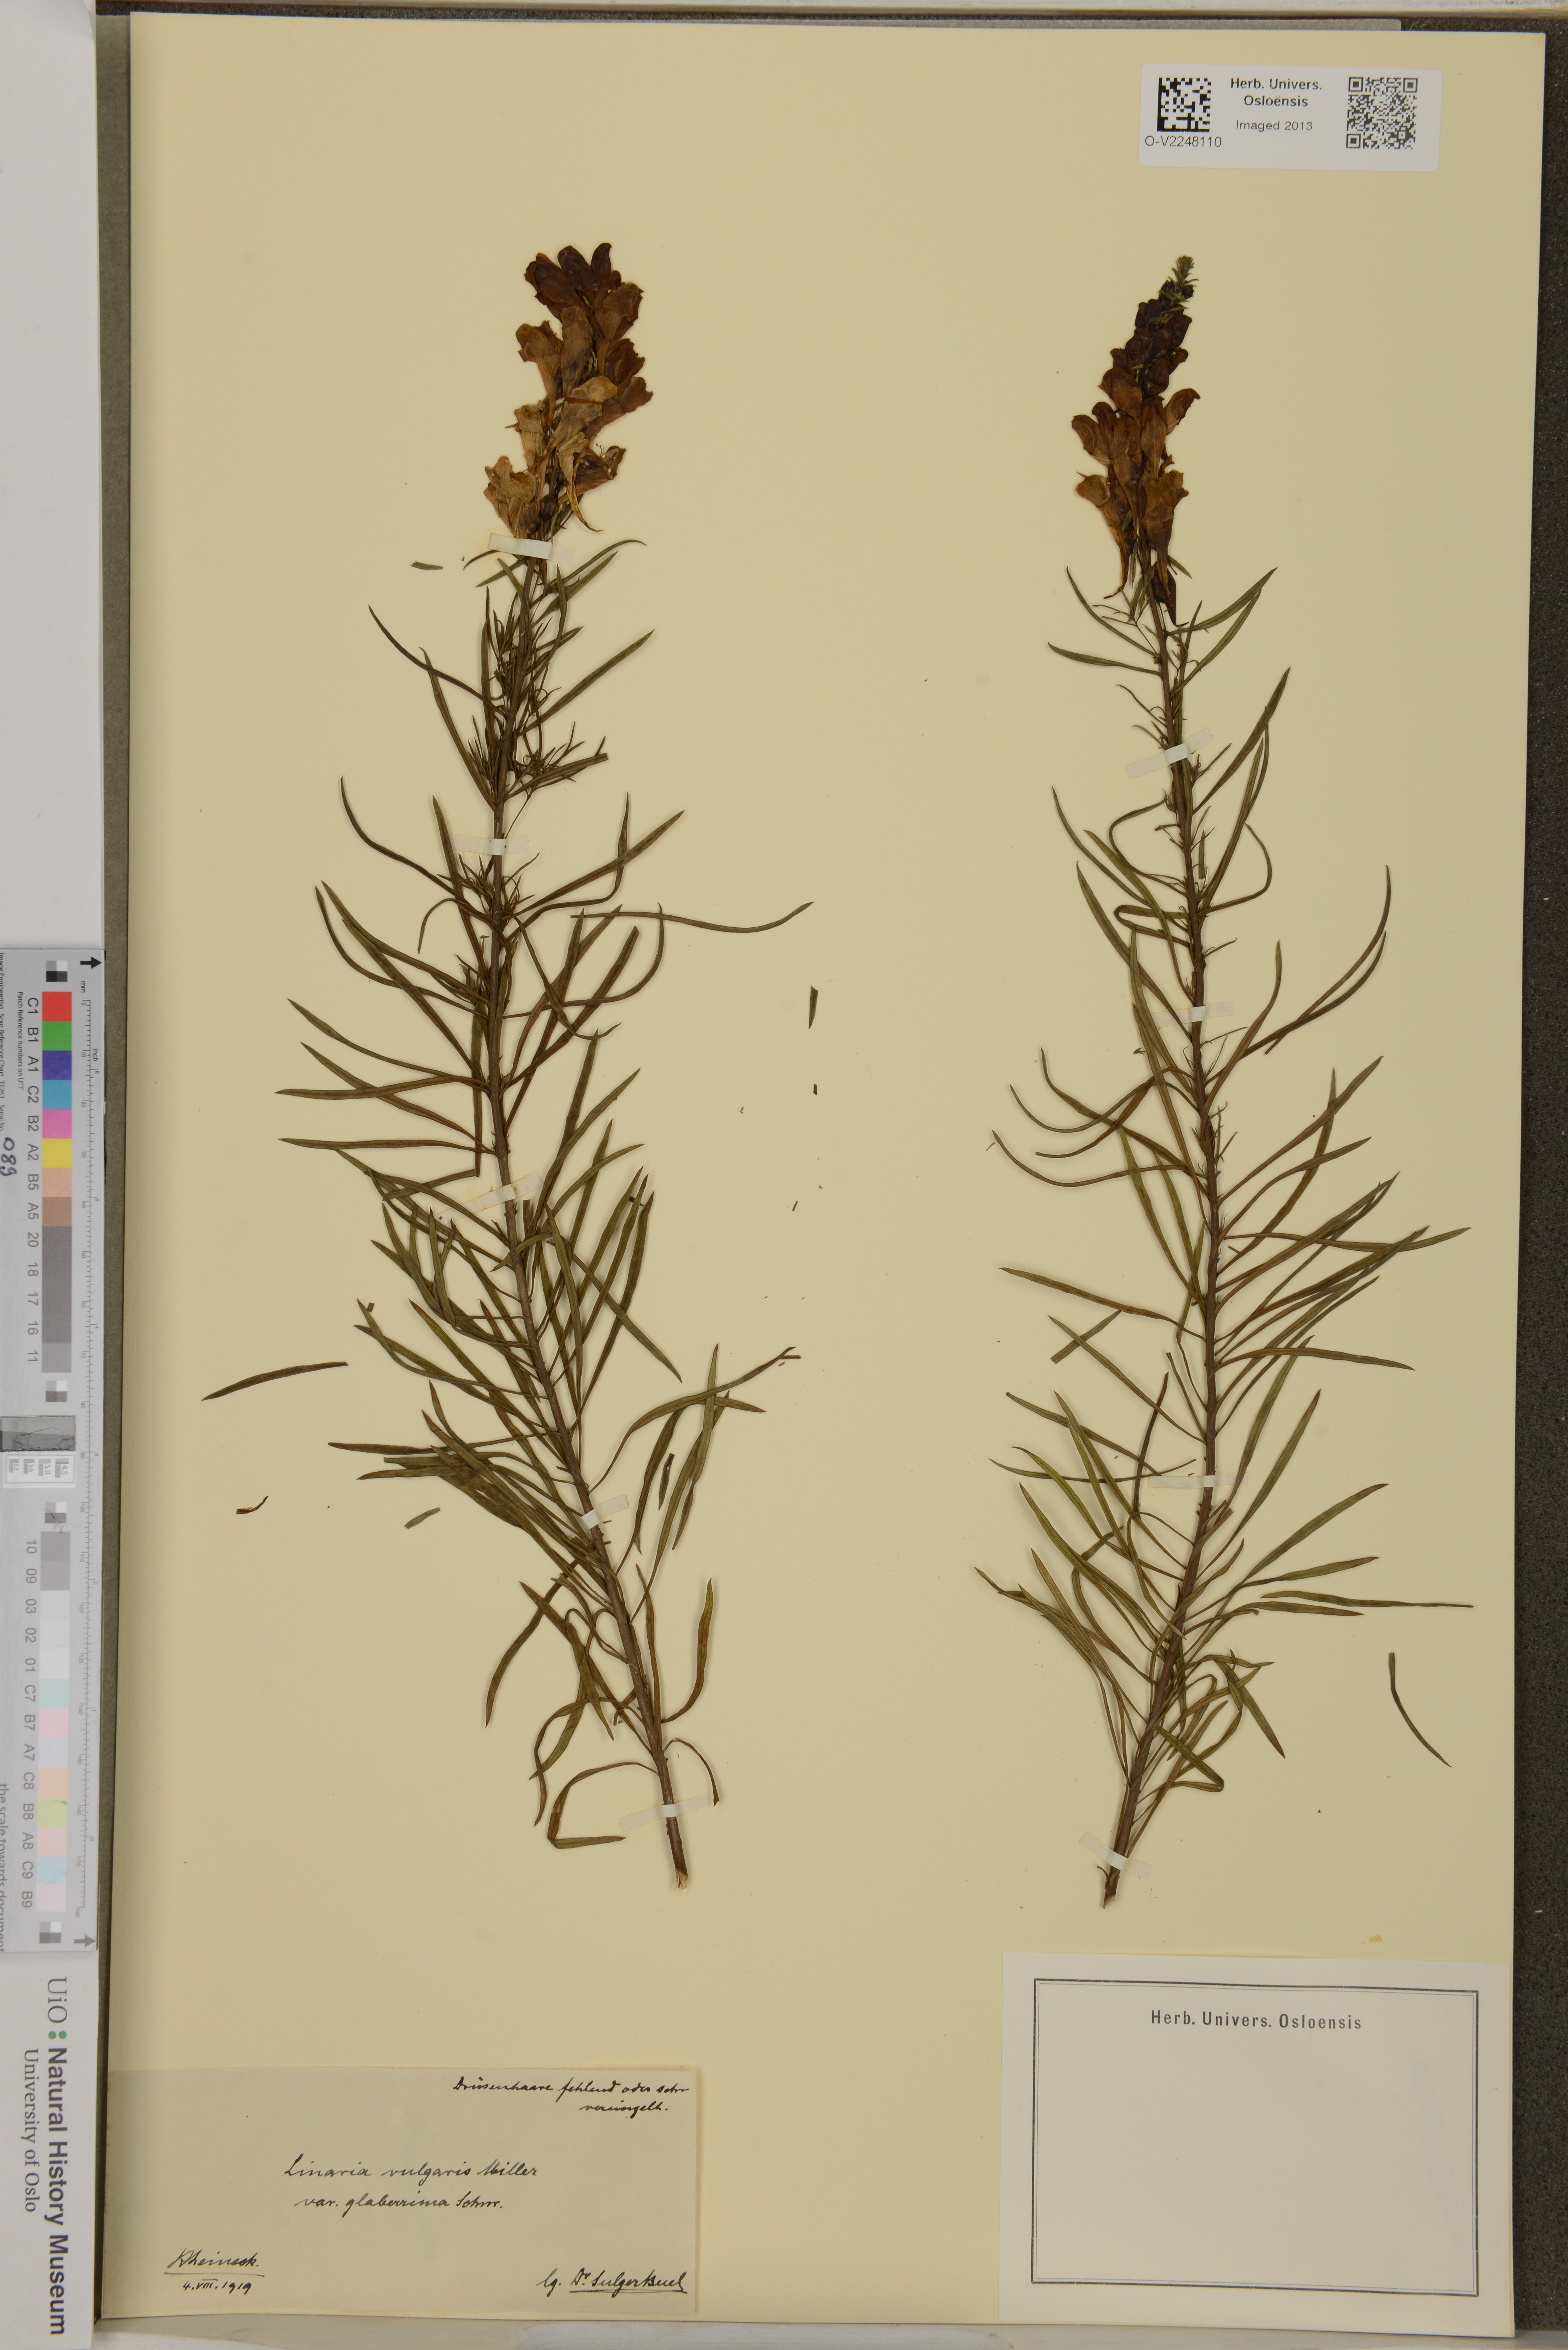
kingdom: Plantae
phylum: Tracheophyta
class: Magnoliopsida
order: Lamiales
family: Plantaginaceae
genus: Linaria
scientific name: Linaria vulgaris
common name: Butter and eggs
